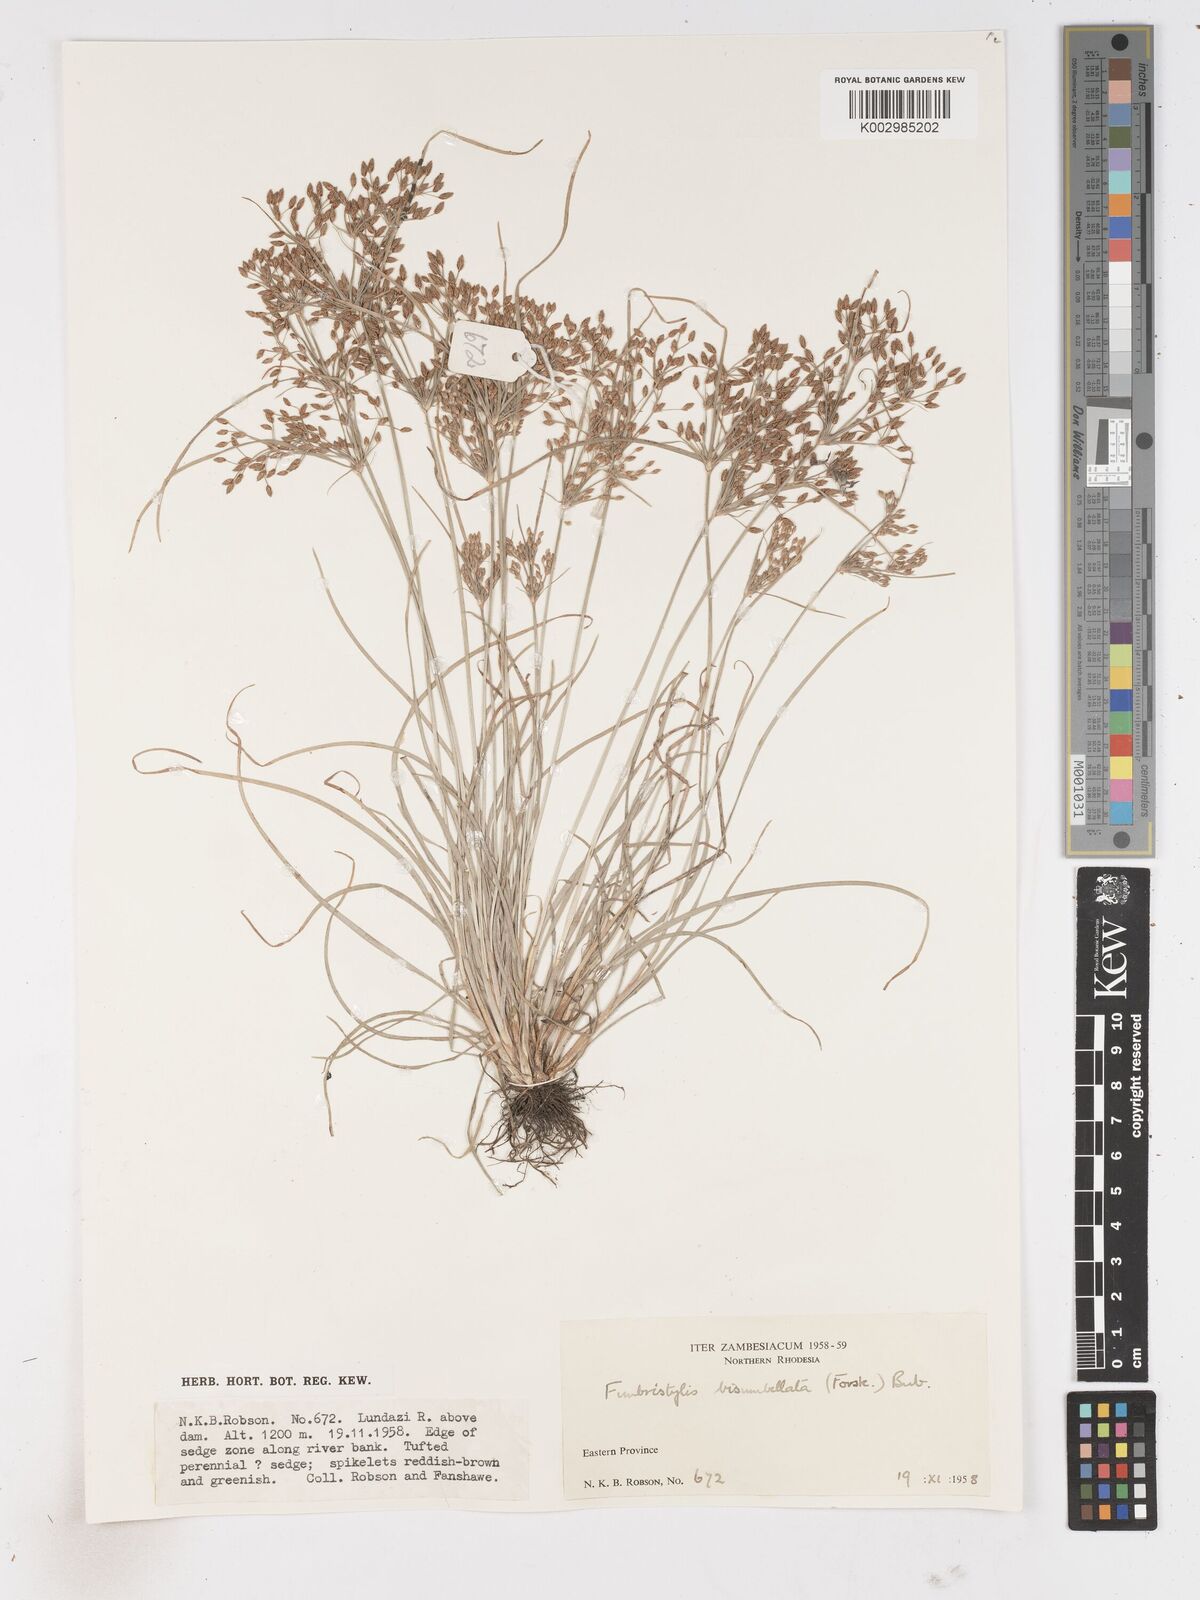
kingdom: Plantae
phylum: Tracheophyta
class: Liliopsida
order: Poales
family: Cyperaceae
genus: Fimbristylis
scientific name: Fimbristylis bisumbellata
